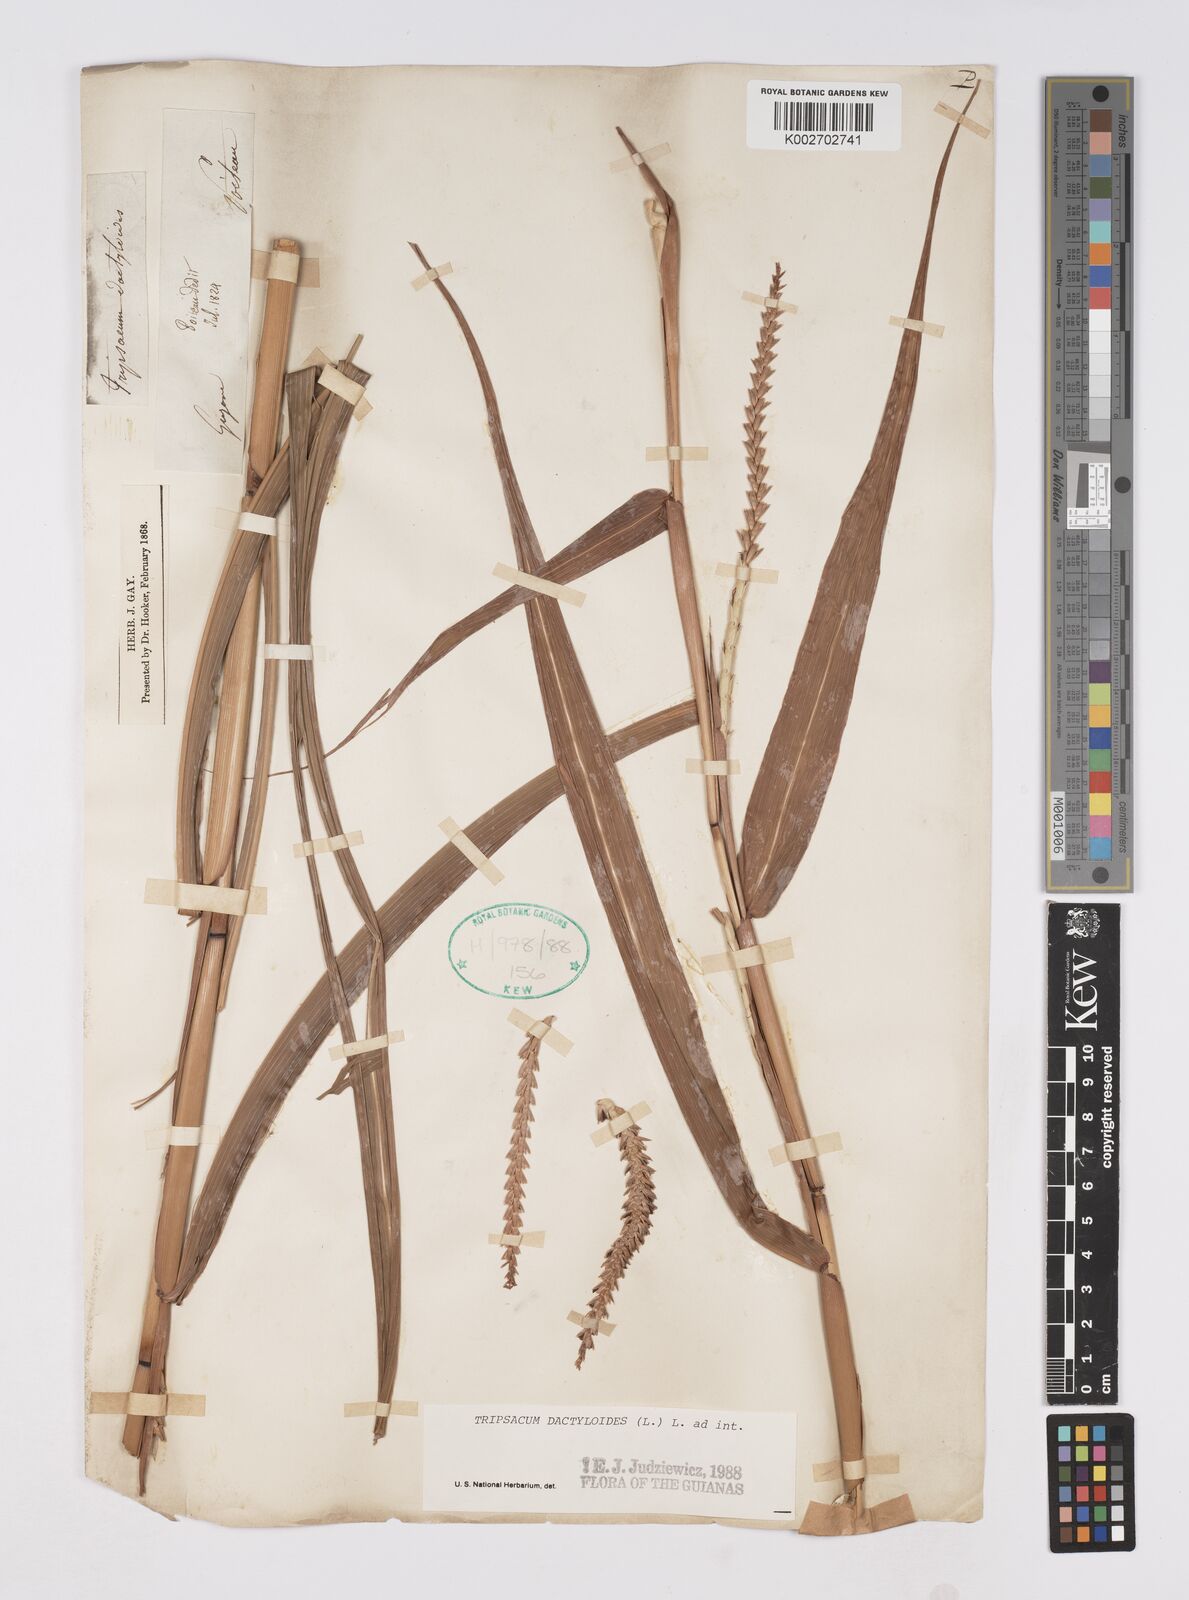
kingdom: Plantae
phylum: Tracheophyta
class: Liliopsida
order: Poales
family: Poaceae
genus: Tripsacum
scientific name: Tripsacum dactyloides
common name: Buffalo-grass
